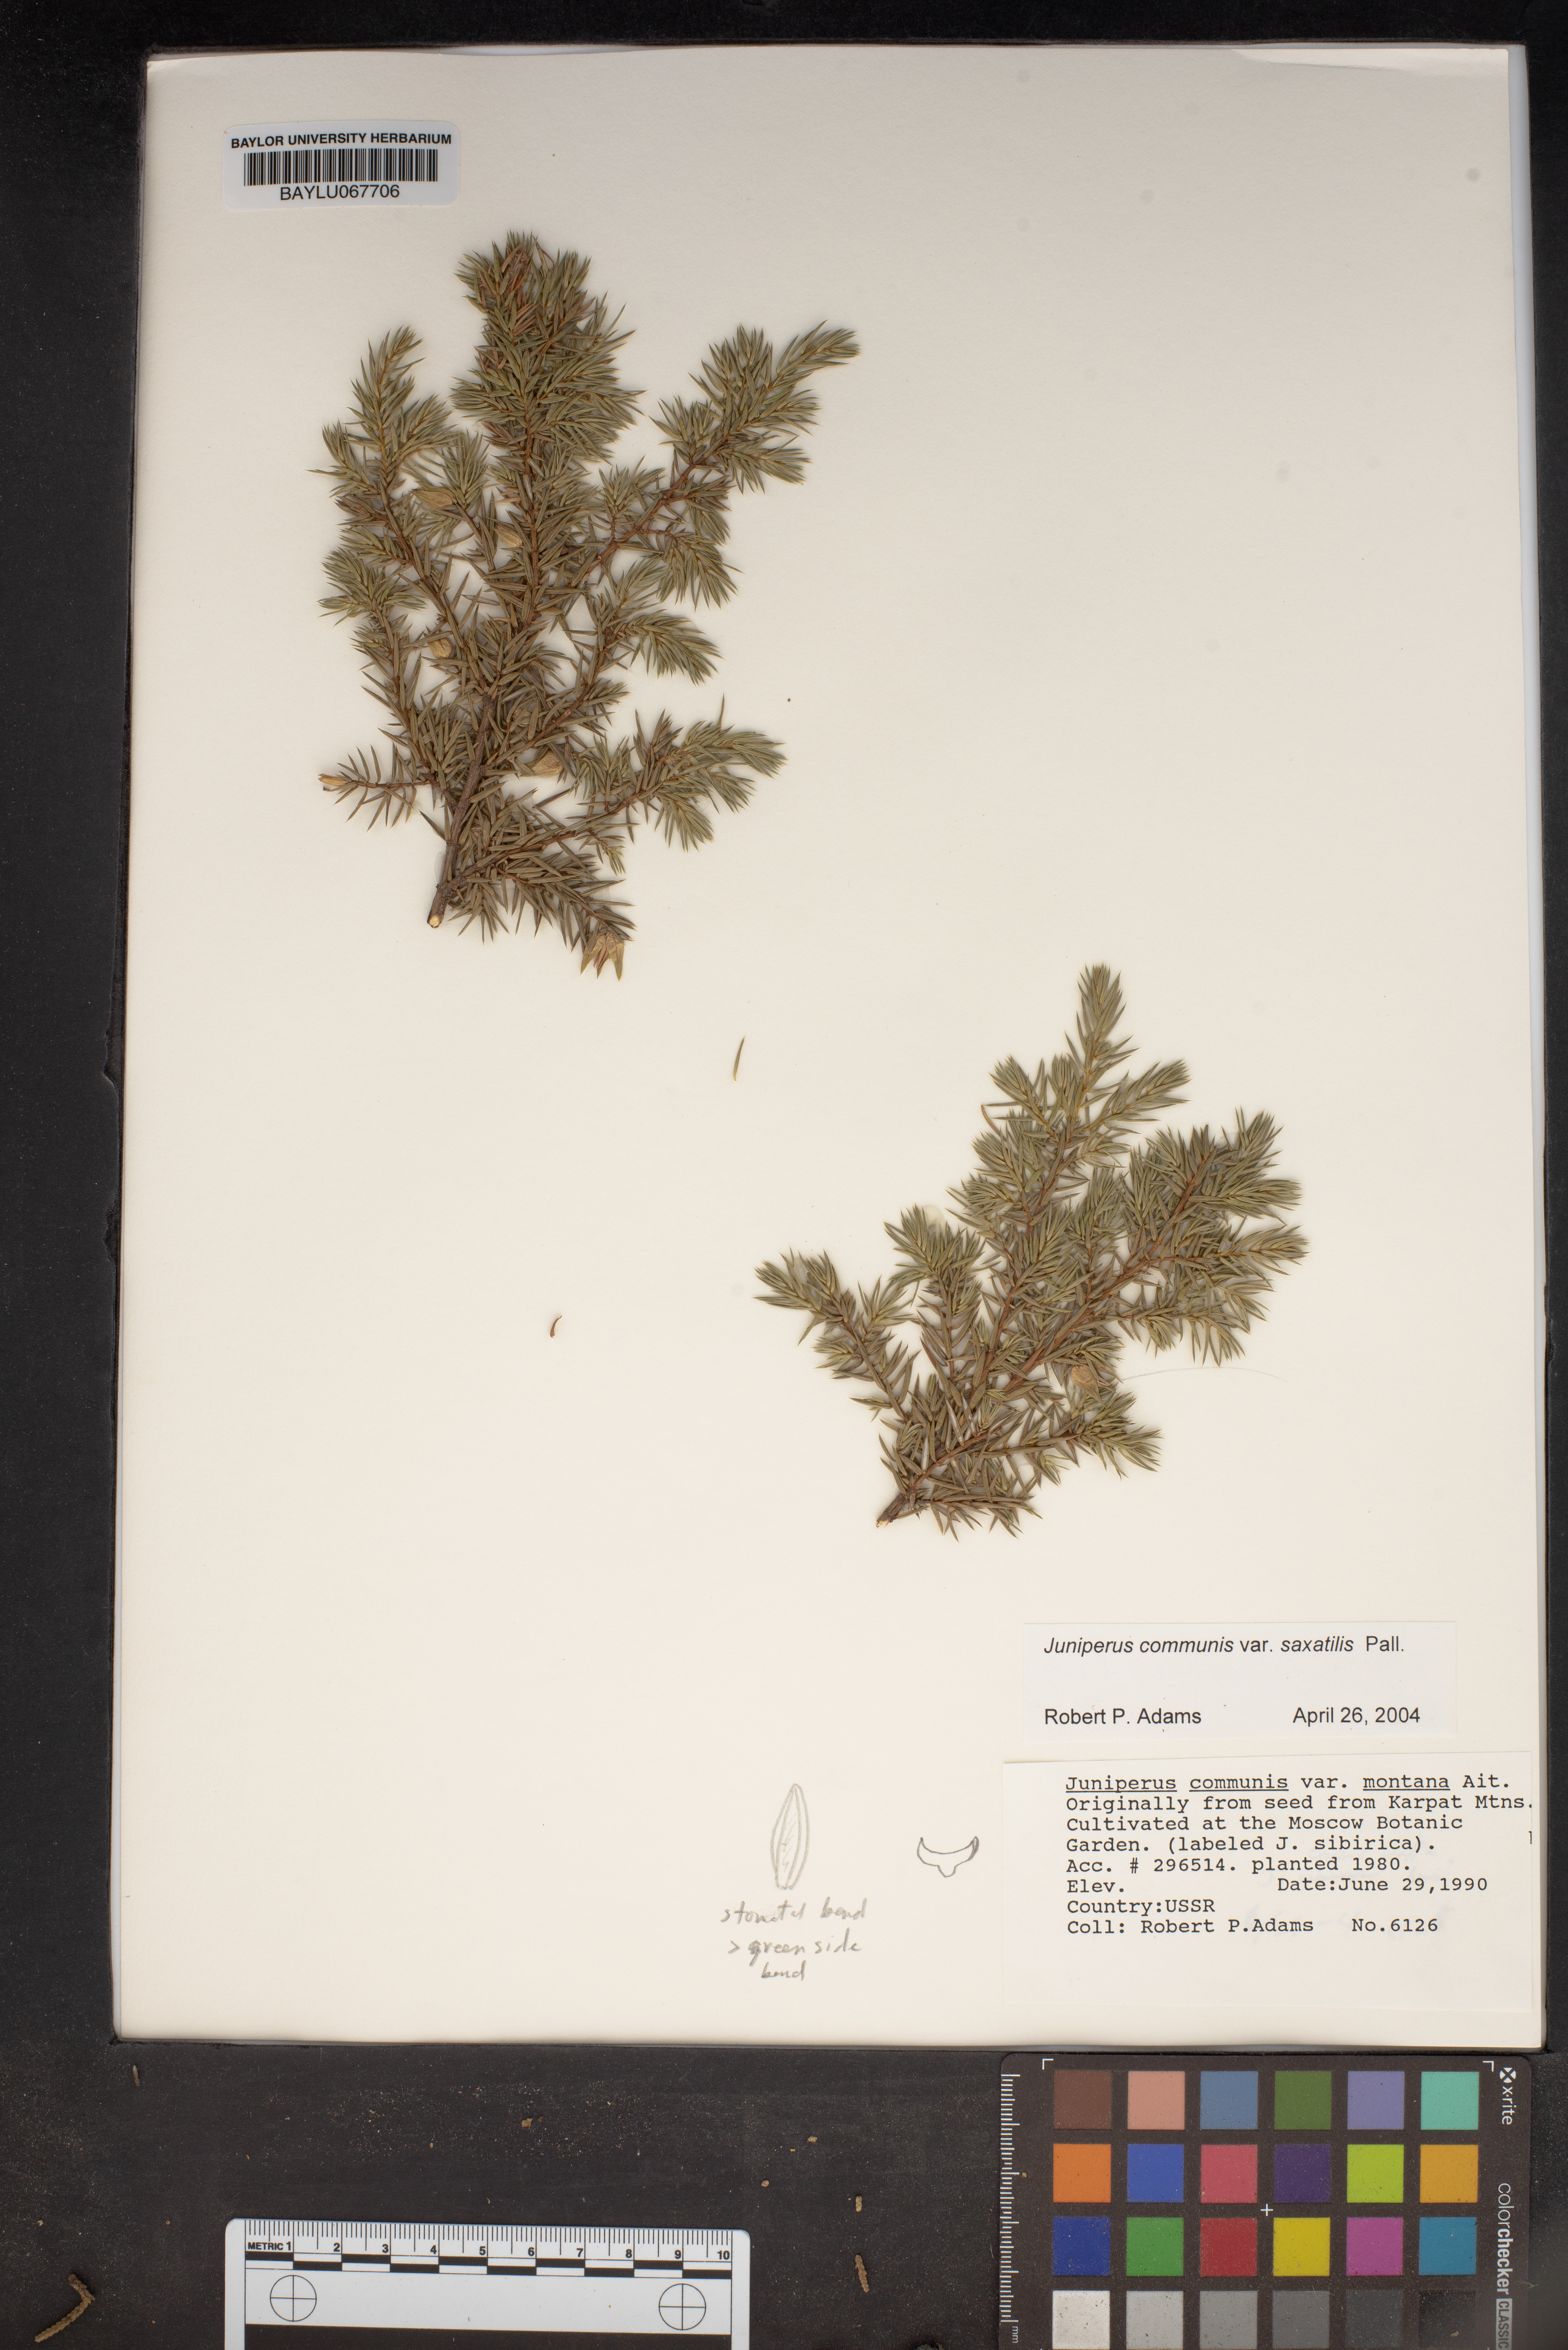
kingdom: Plantae
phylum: Tracheophyta
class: Pinopsida
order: Pinales
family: Cupressaceae
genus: Juniperus
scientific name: Juniperus communis
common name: Common juniper
